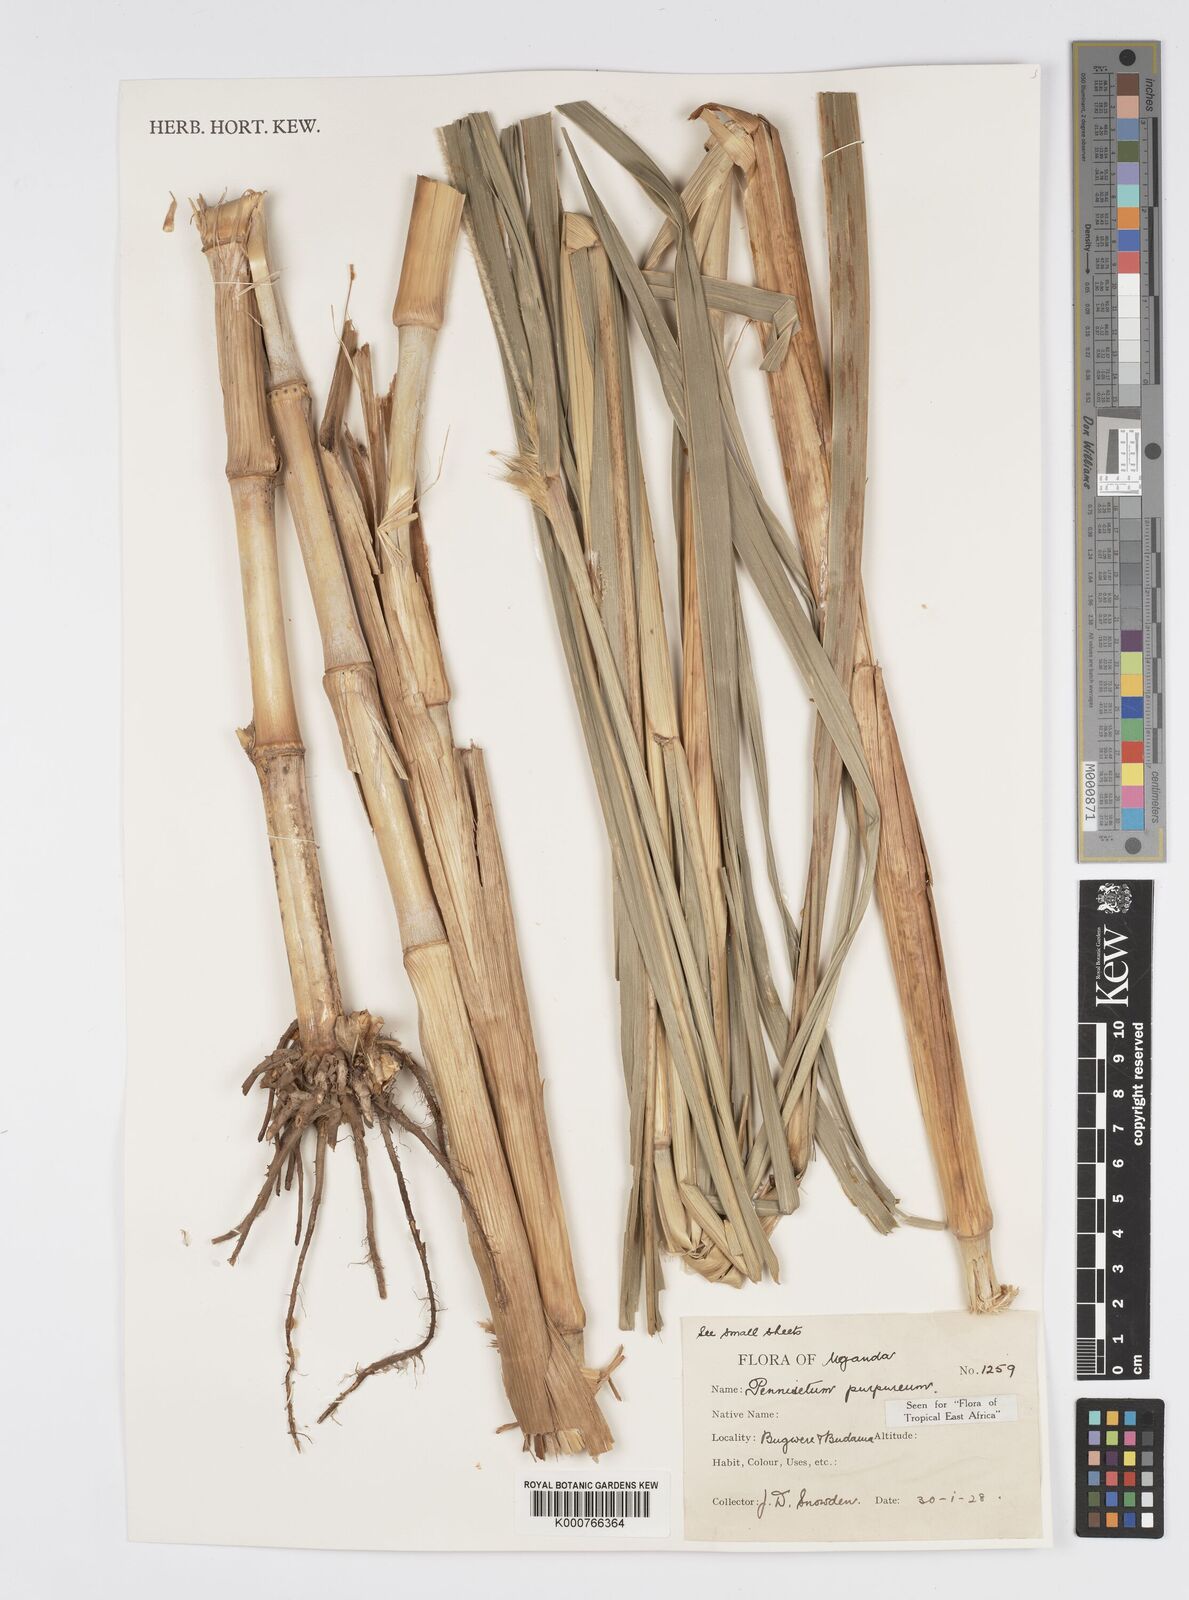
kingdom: Plantae
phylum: Tracheophyta
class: Liliopsida
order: Poales
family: Poaceae
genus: Cenchrus
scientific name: Cenchrus purpureus
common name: Elephant grass
